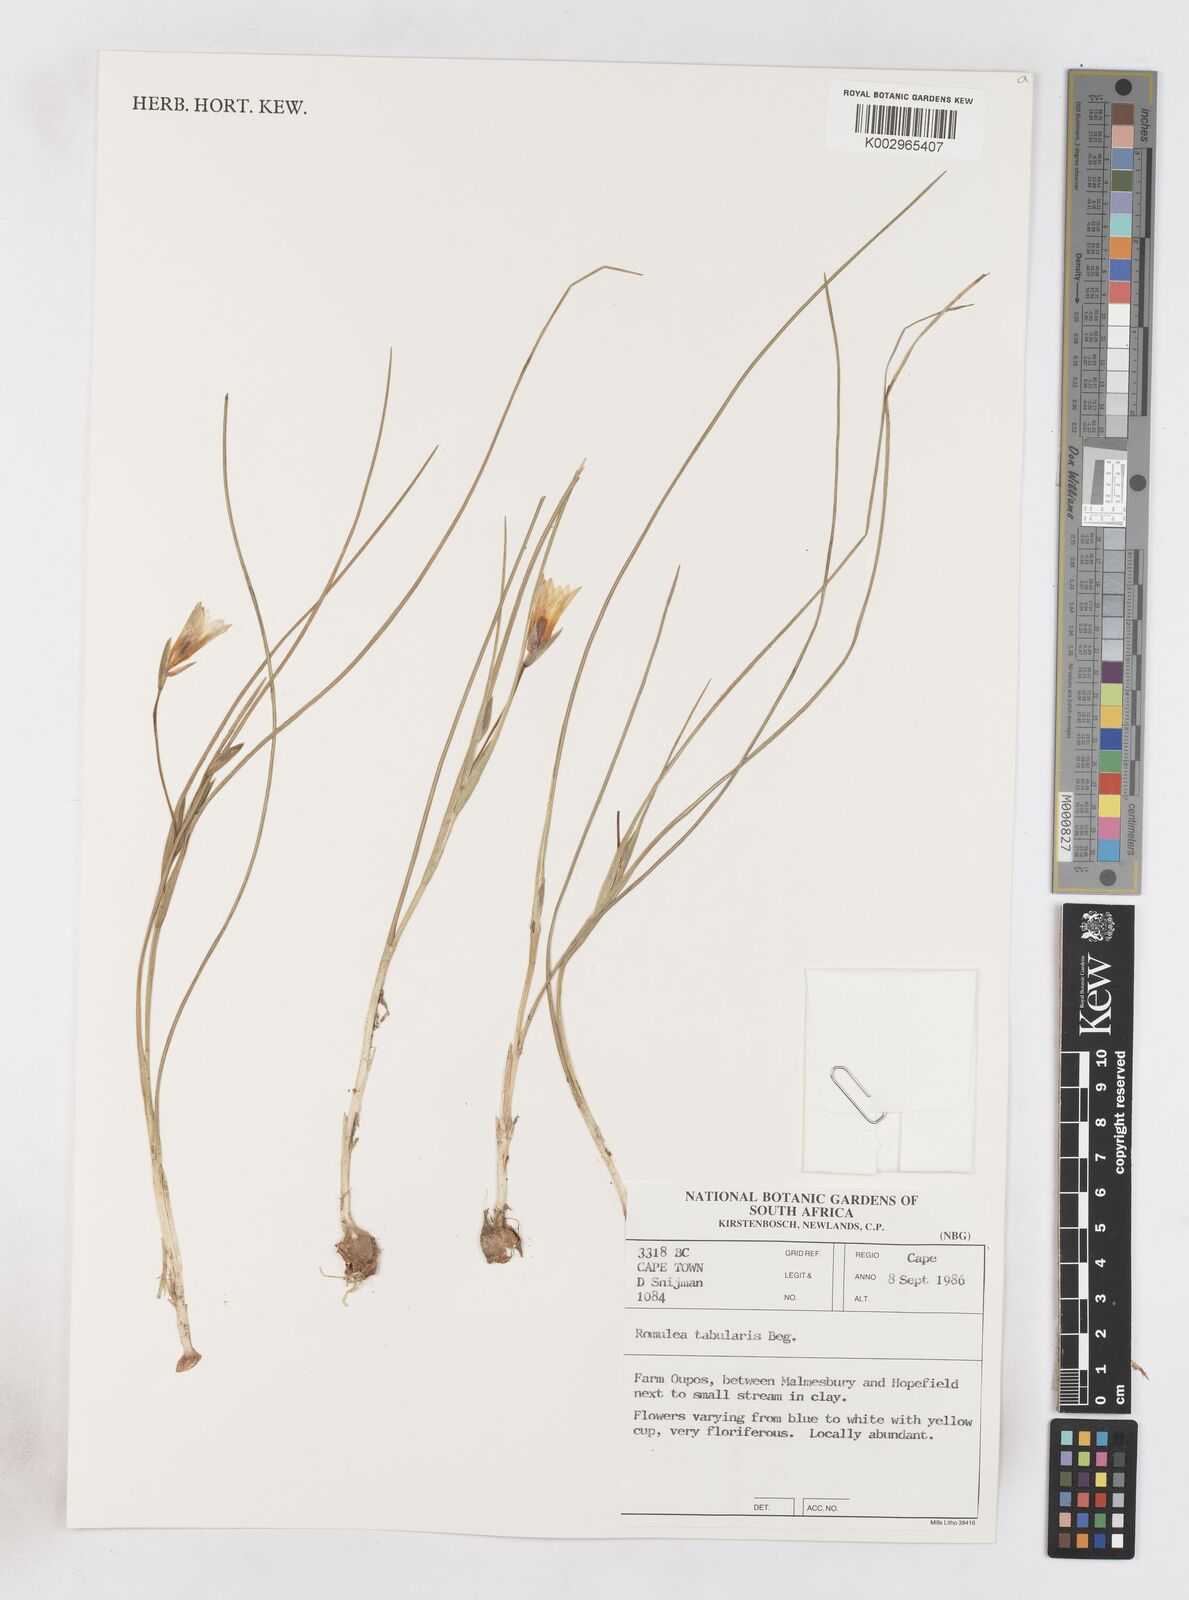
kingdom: Plantae
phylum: Tracheophyta
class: Liliopsida
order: Asparagales
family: Iridaceae
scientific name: Iridaceae
